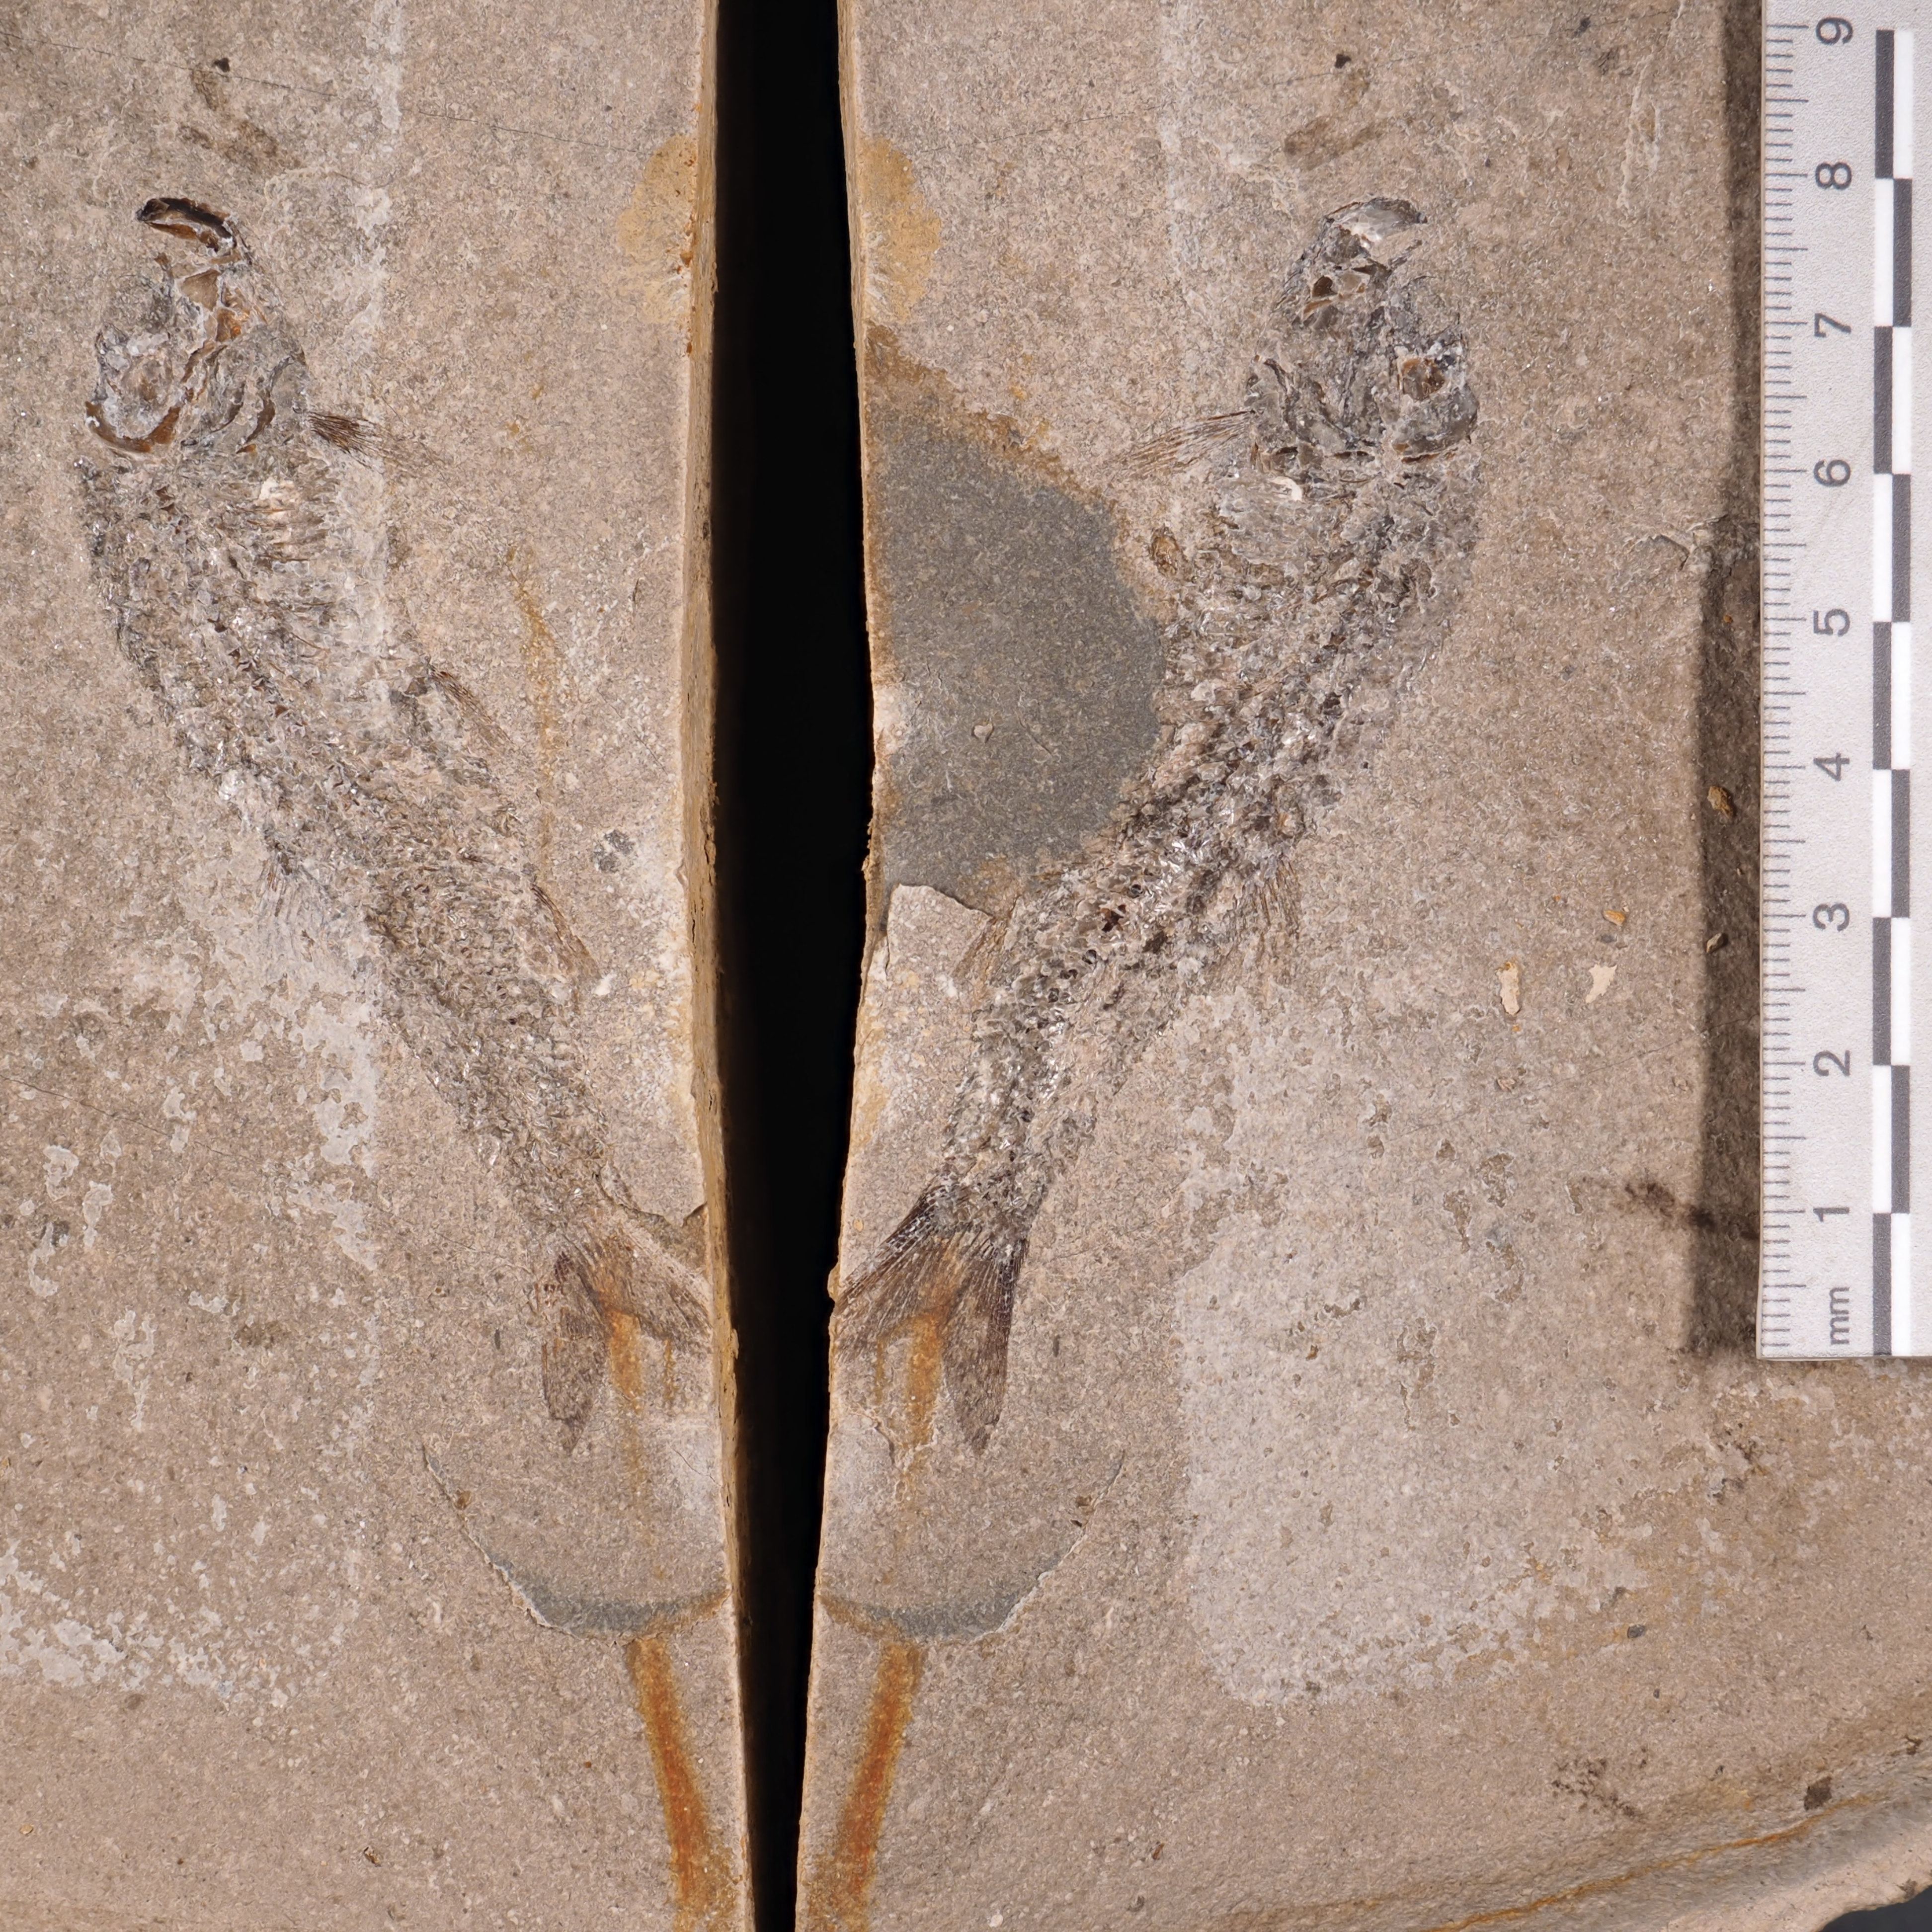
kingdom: Animalia
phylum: Chordata
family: Leptolepididae
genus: Leptolepis
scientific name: Leptolepis normandica
